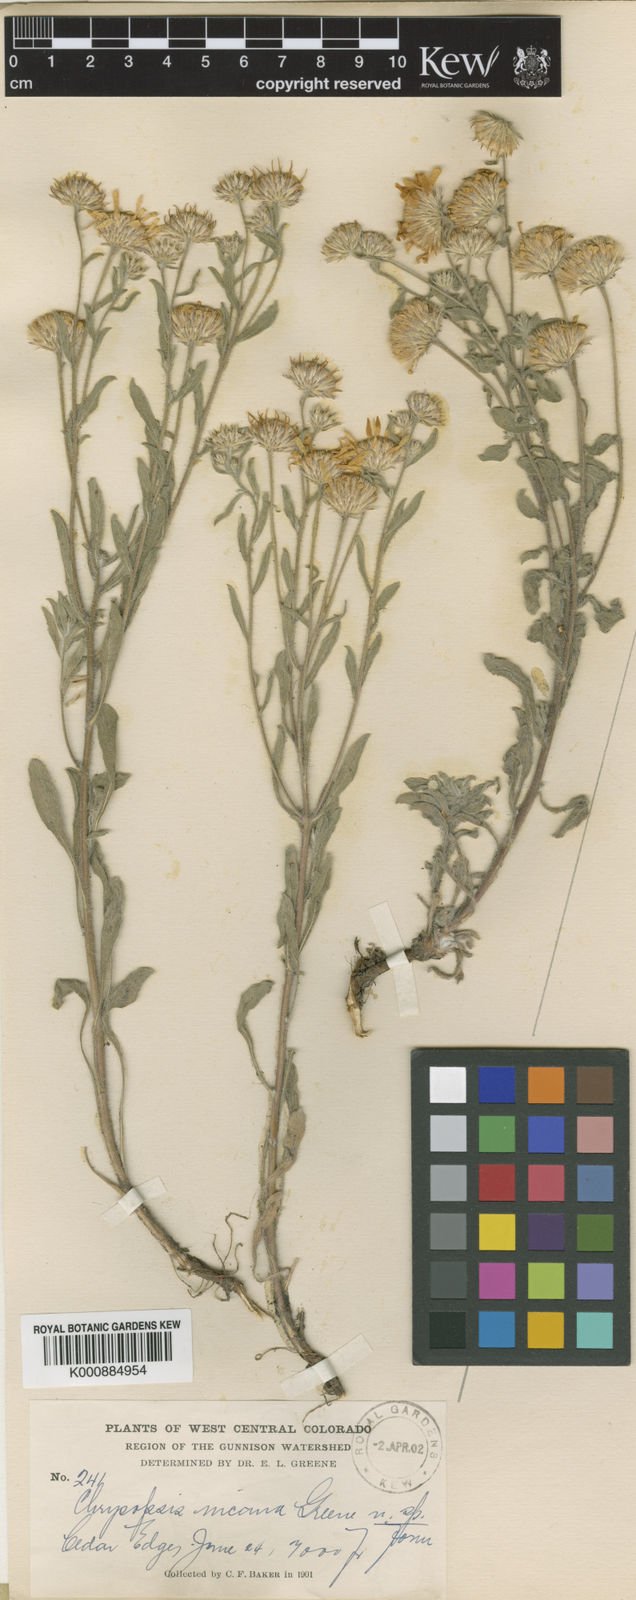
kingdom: Plantae
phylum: Tracheophyta
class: Magnoliopsida
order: Asterales
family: Asteraceae
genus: Heterotheca
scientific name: Heterotheca
